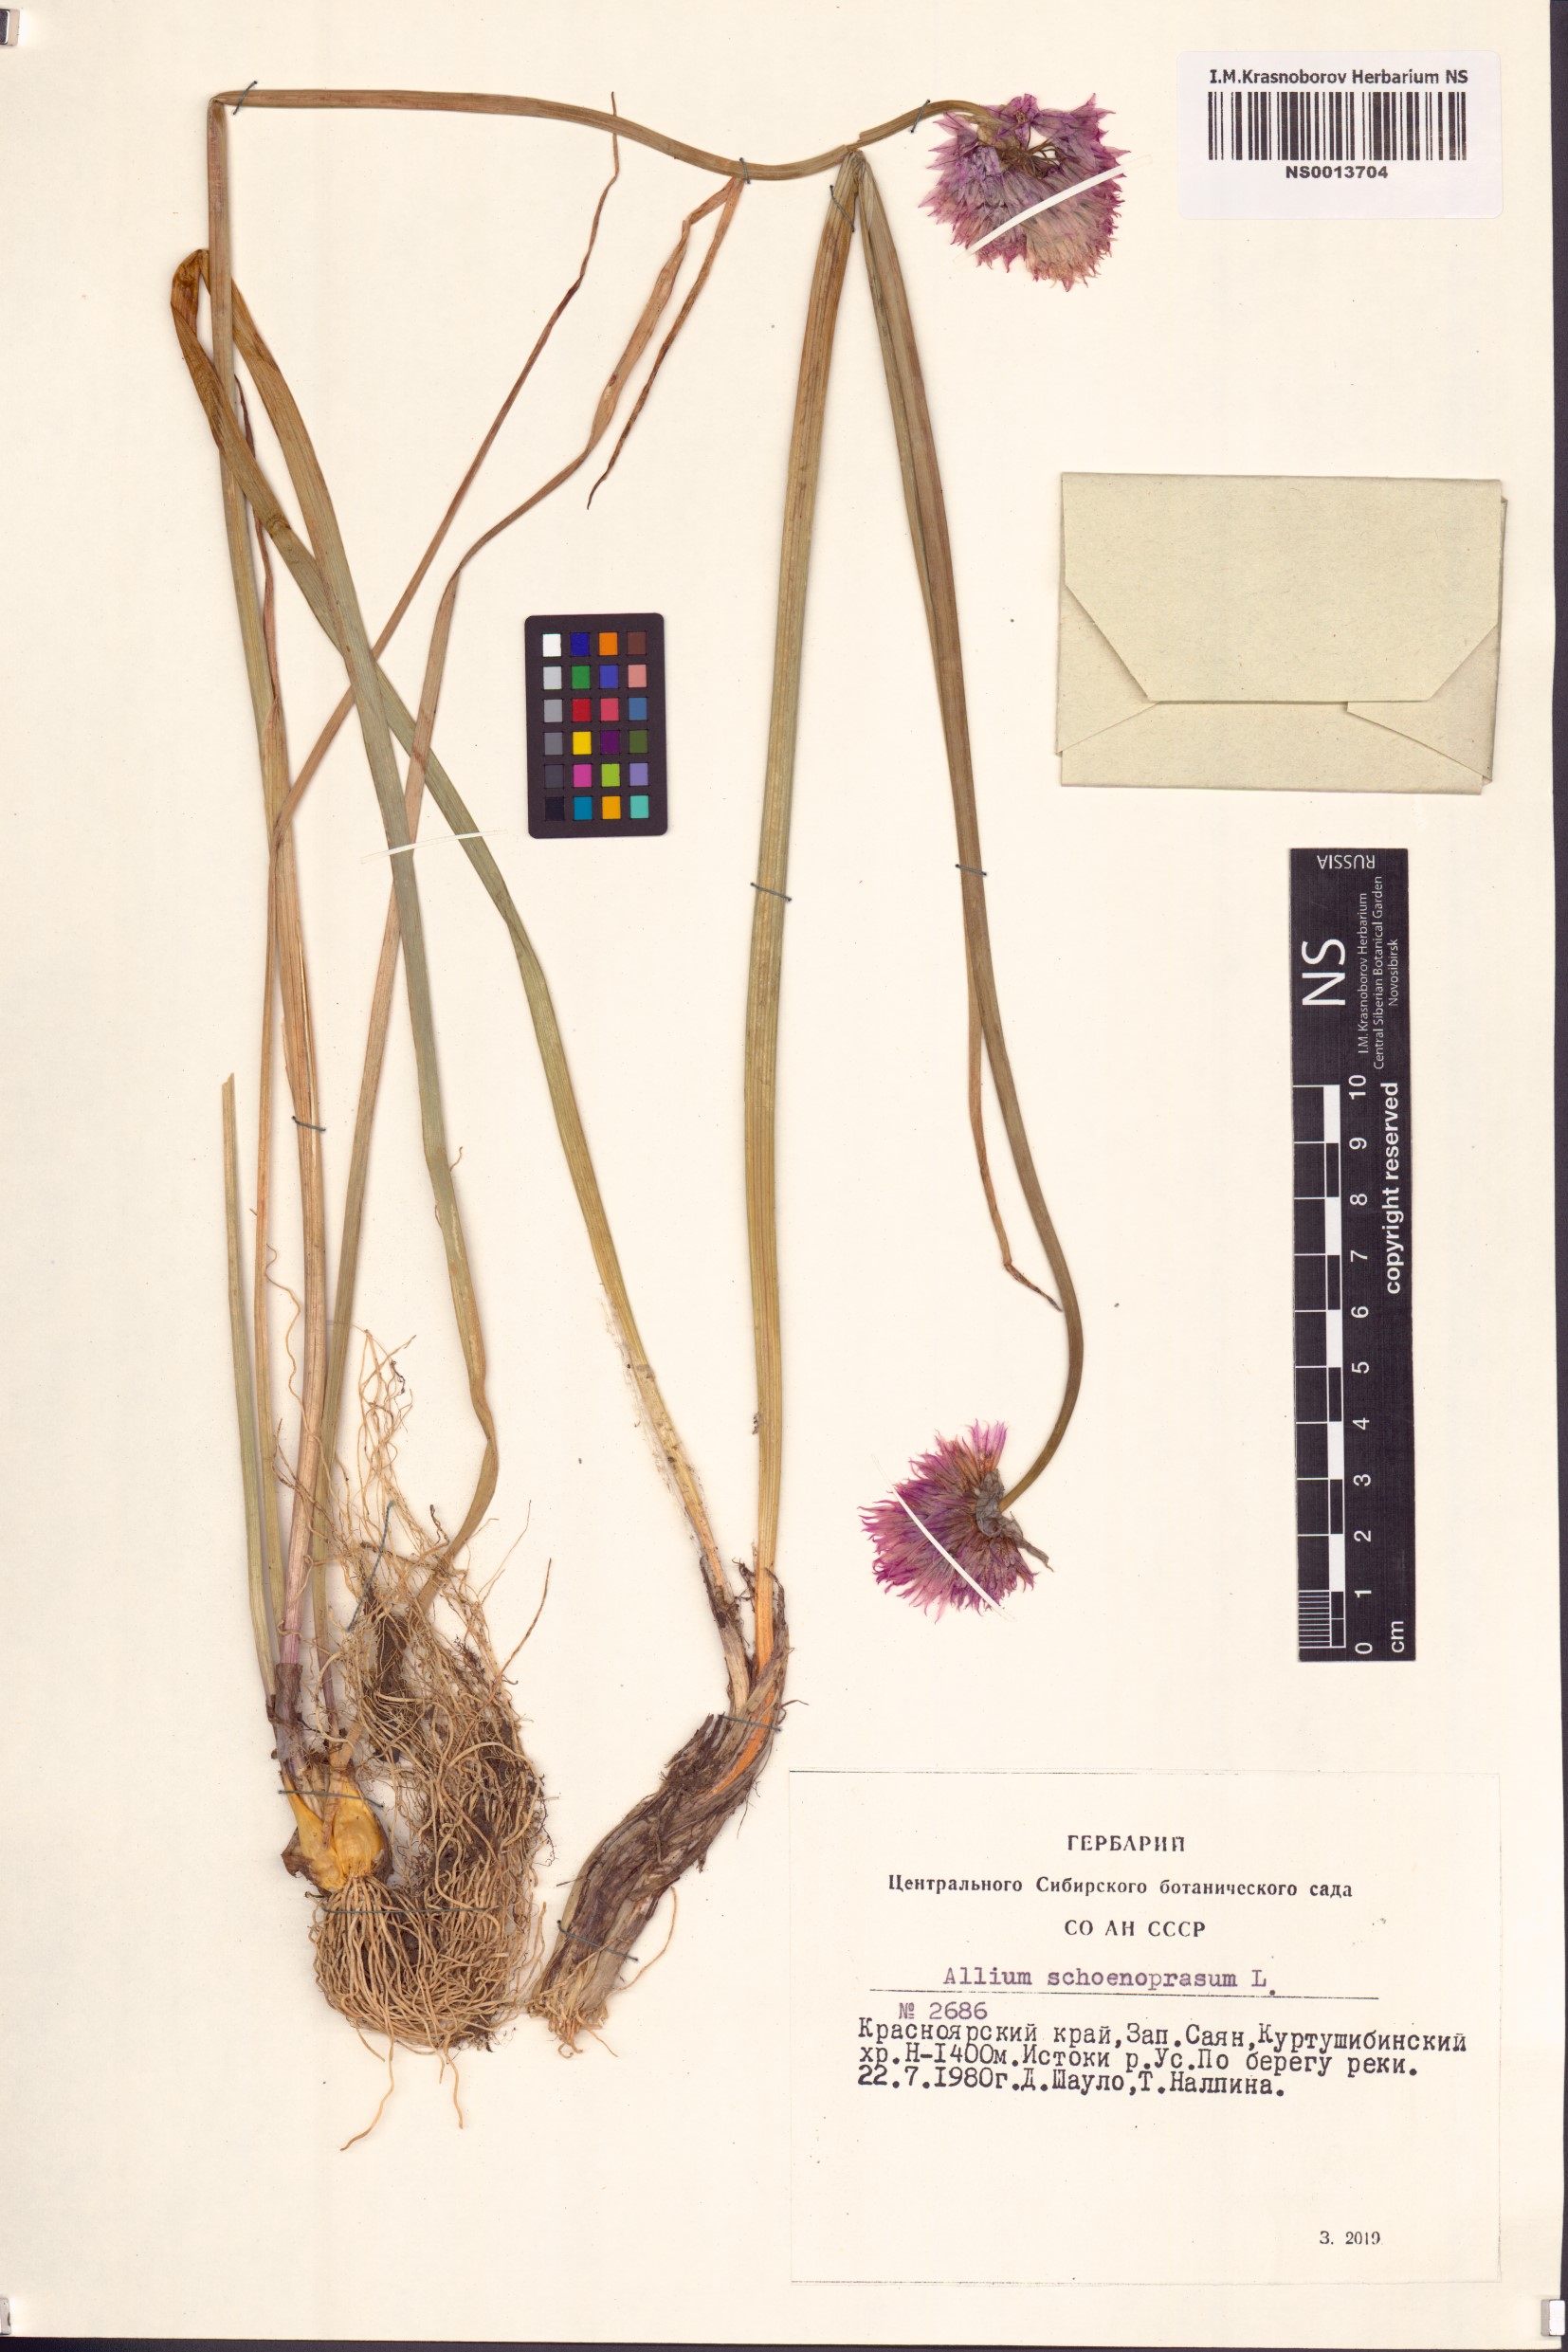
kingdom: Plantae
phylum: Tracheophyta
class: Liliopsida
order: Asparagales
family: Amaryllidaceae
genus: Allium
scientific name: Allium schoenoprasum
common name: Chives
